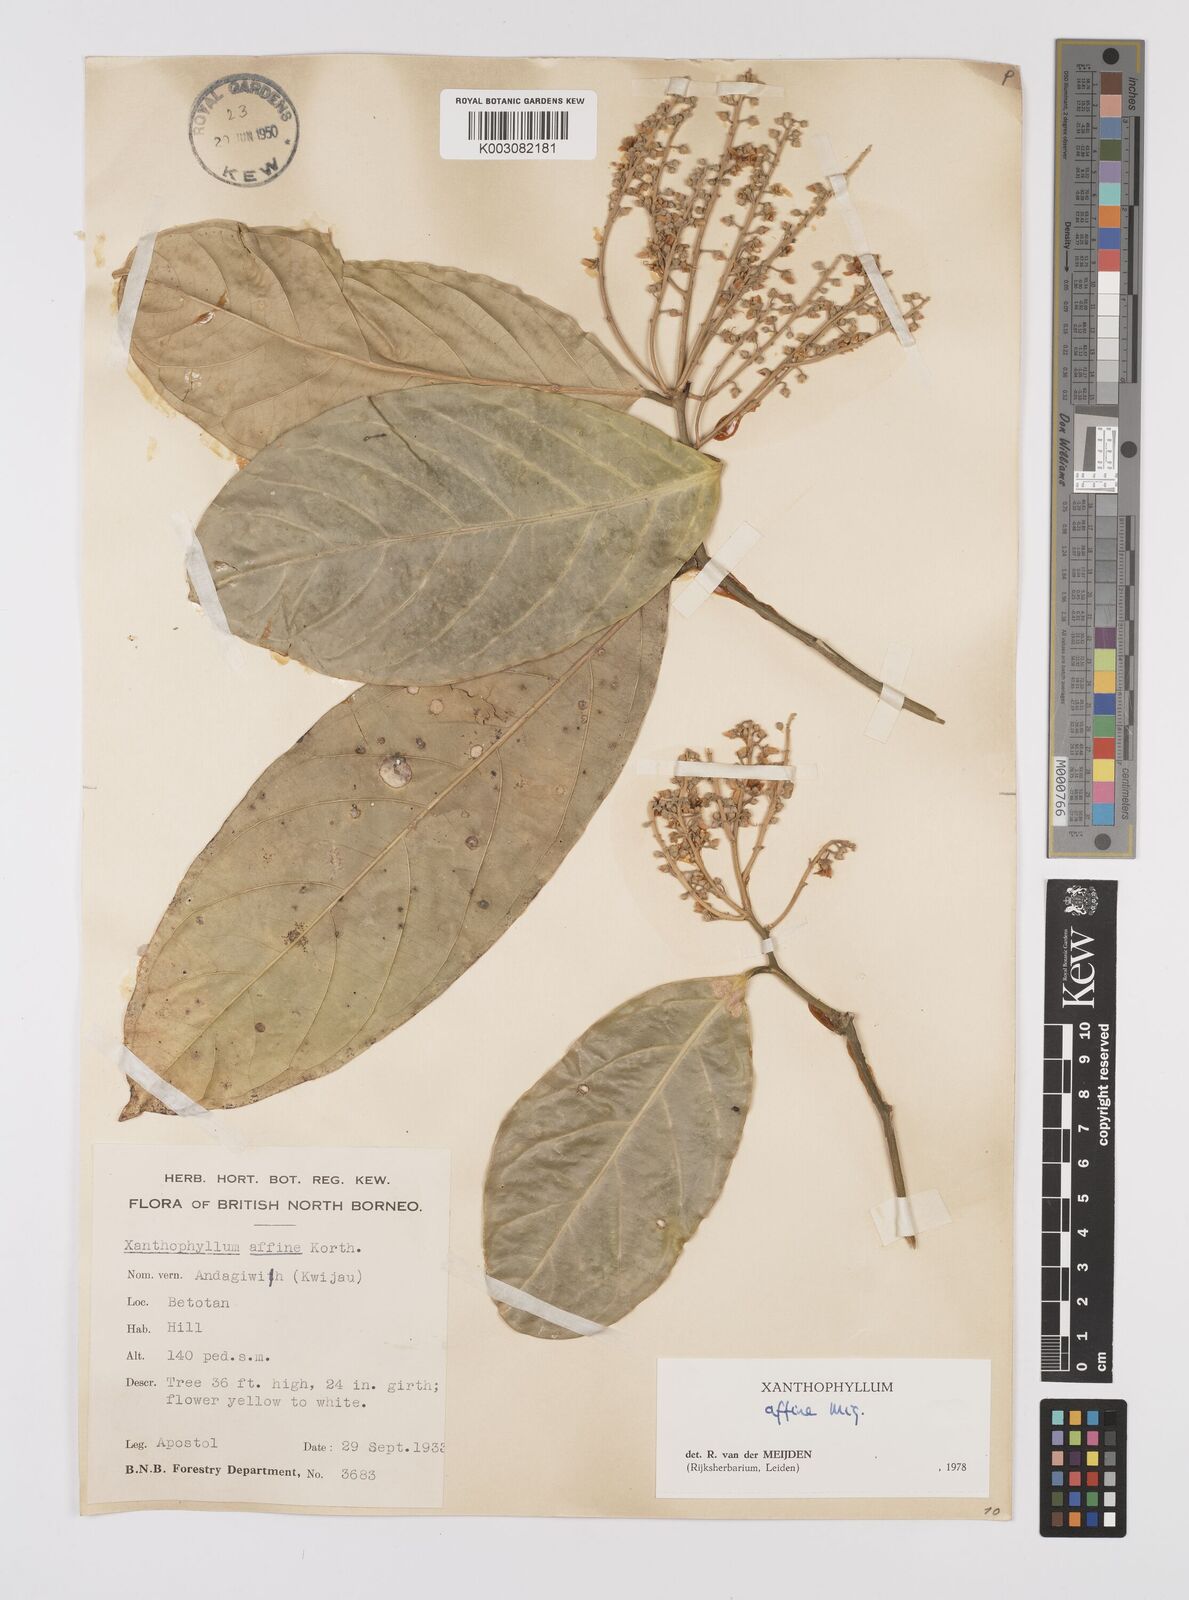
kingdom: Plantae
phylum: Tracheophyta
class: Magnoliopsida
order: Fabales
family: Polygalaceae
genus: Xanthophyllum
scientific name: Xanthophyllum flavescens
